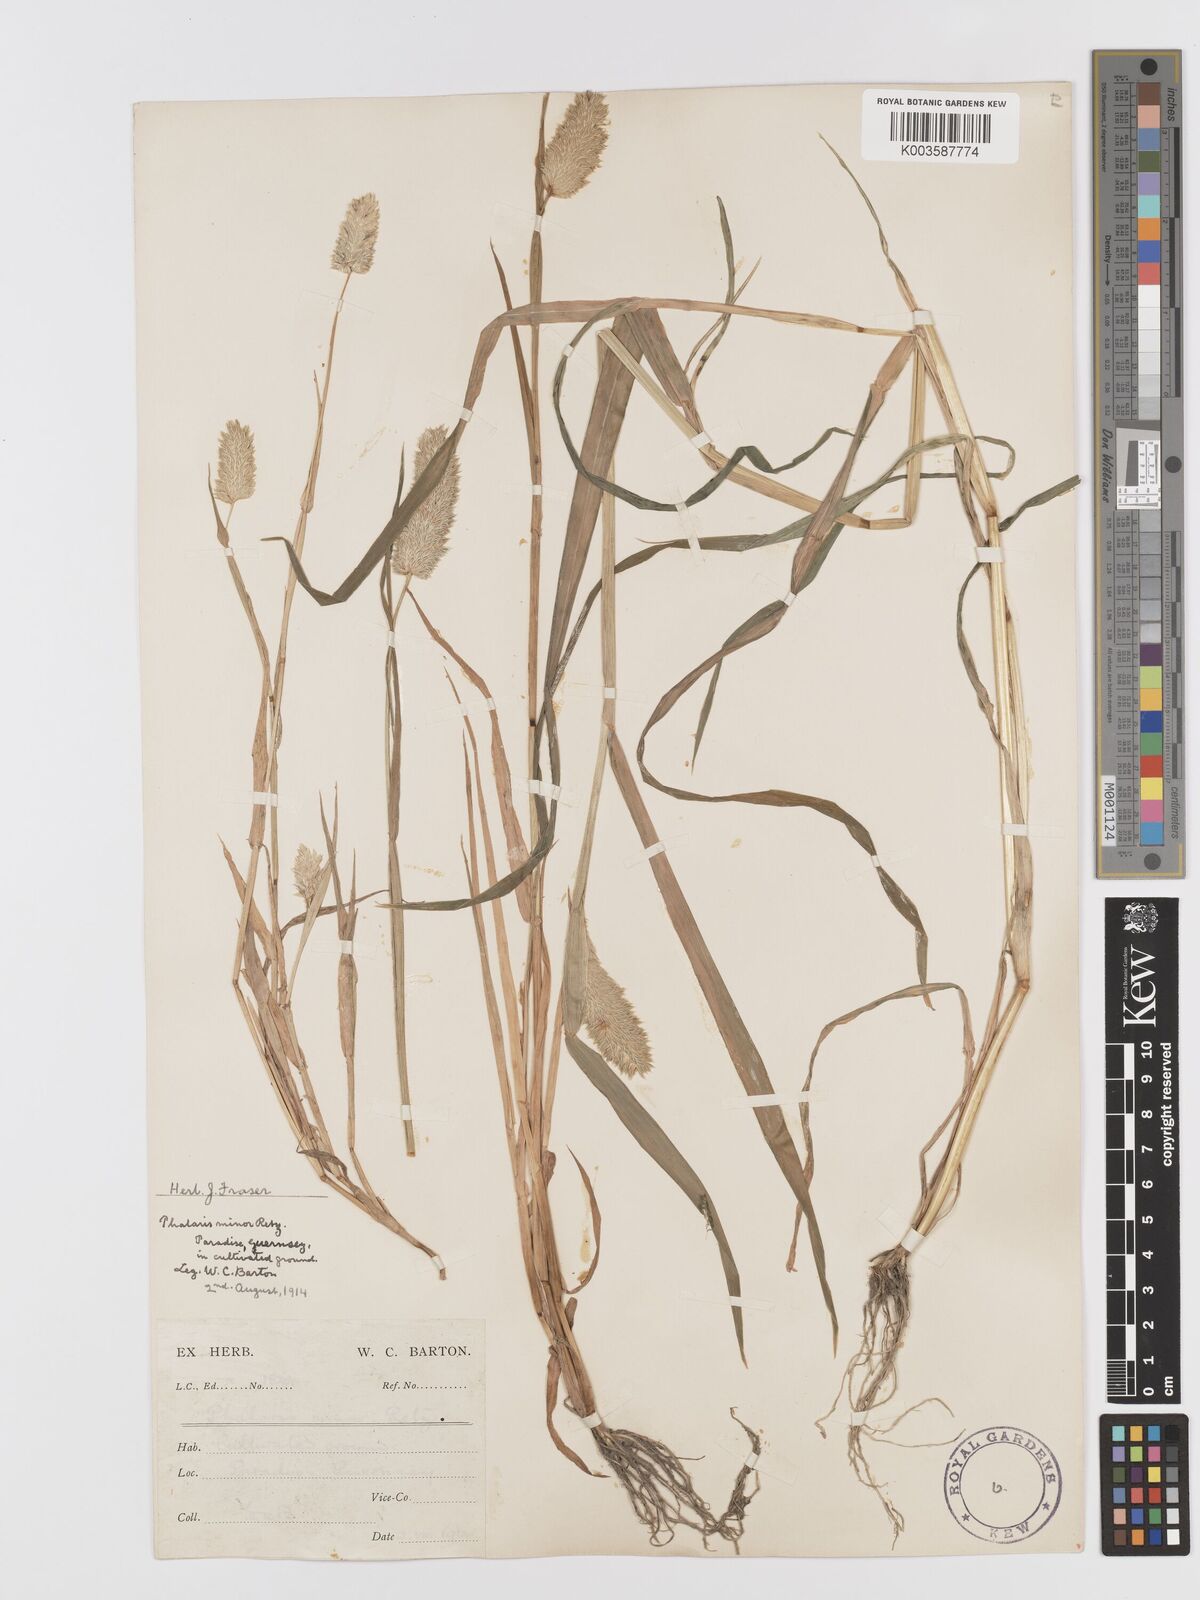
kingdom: Plantae
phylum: Tracheophyta
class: Liliopsida
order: Poales
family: Poaceae
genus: Phalaris
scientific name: Phalaris minor
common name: Littleseed canarygrass
